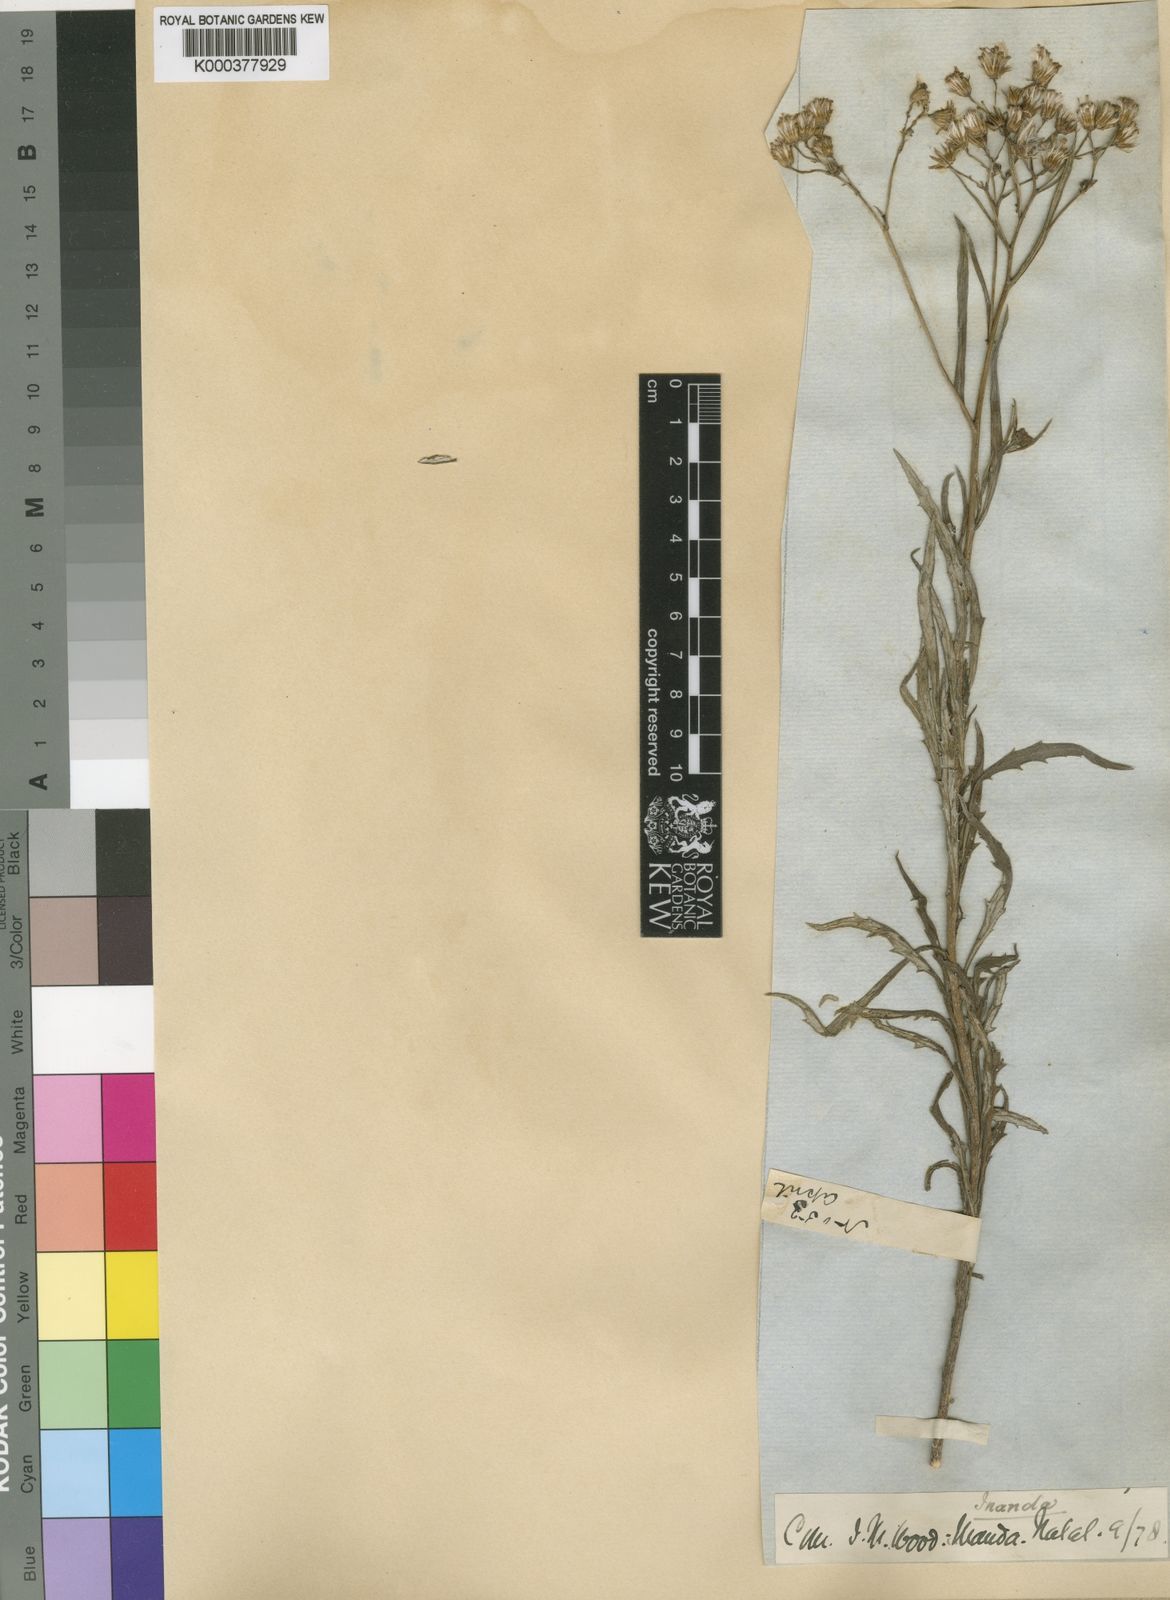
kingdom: Plantae
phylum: Tracheophyta
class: Magnoliopsida
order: Asterales
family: Asteraceae
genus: Senecio
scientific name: Senecio pterophorus
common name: Shoddy ragwort
